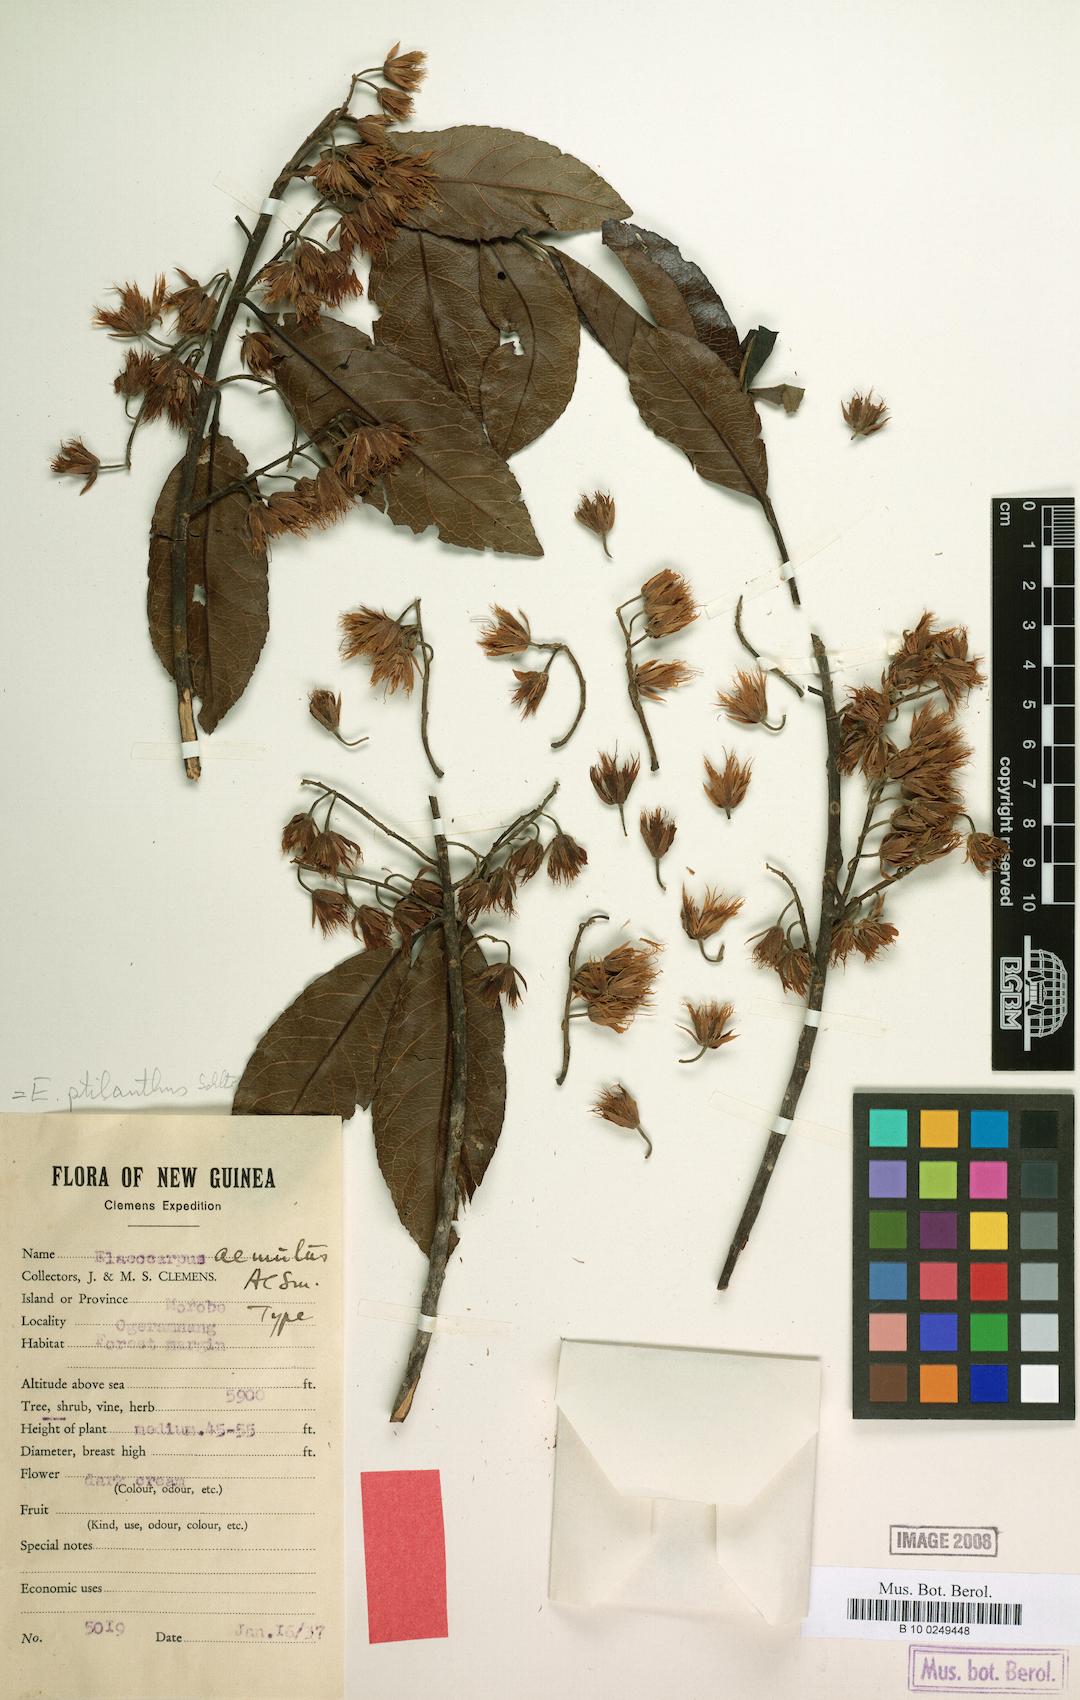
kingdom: Plantae
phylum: Tracheophyta
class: Magnoliopsida
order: Oxalidales
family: Elaeocarpaceae
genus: Elaeocarpus
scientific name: Elaeocarpus ptilanthus
